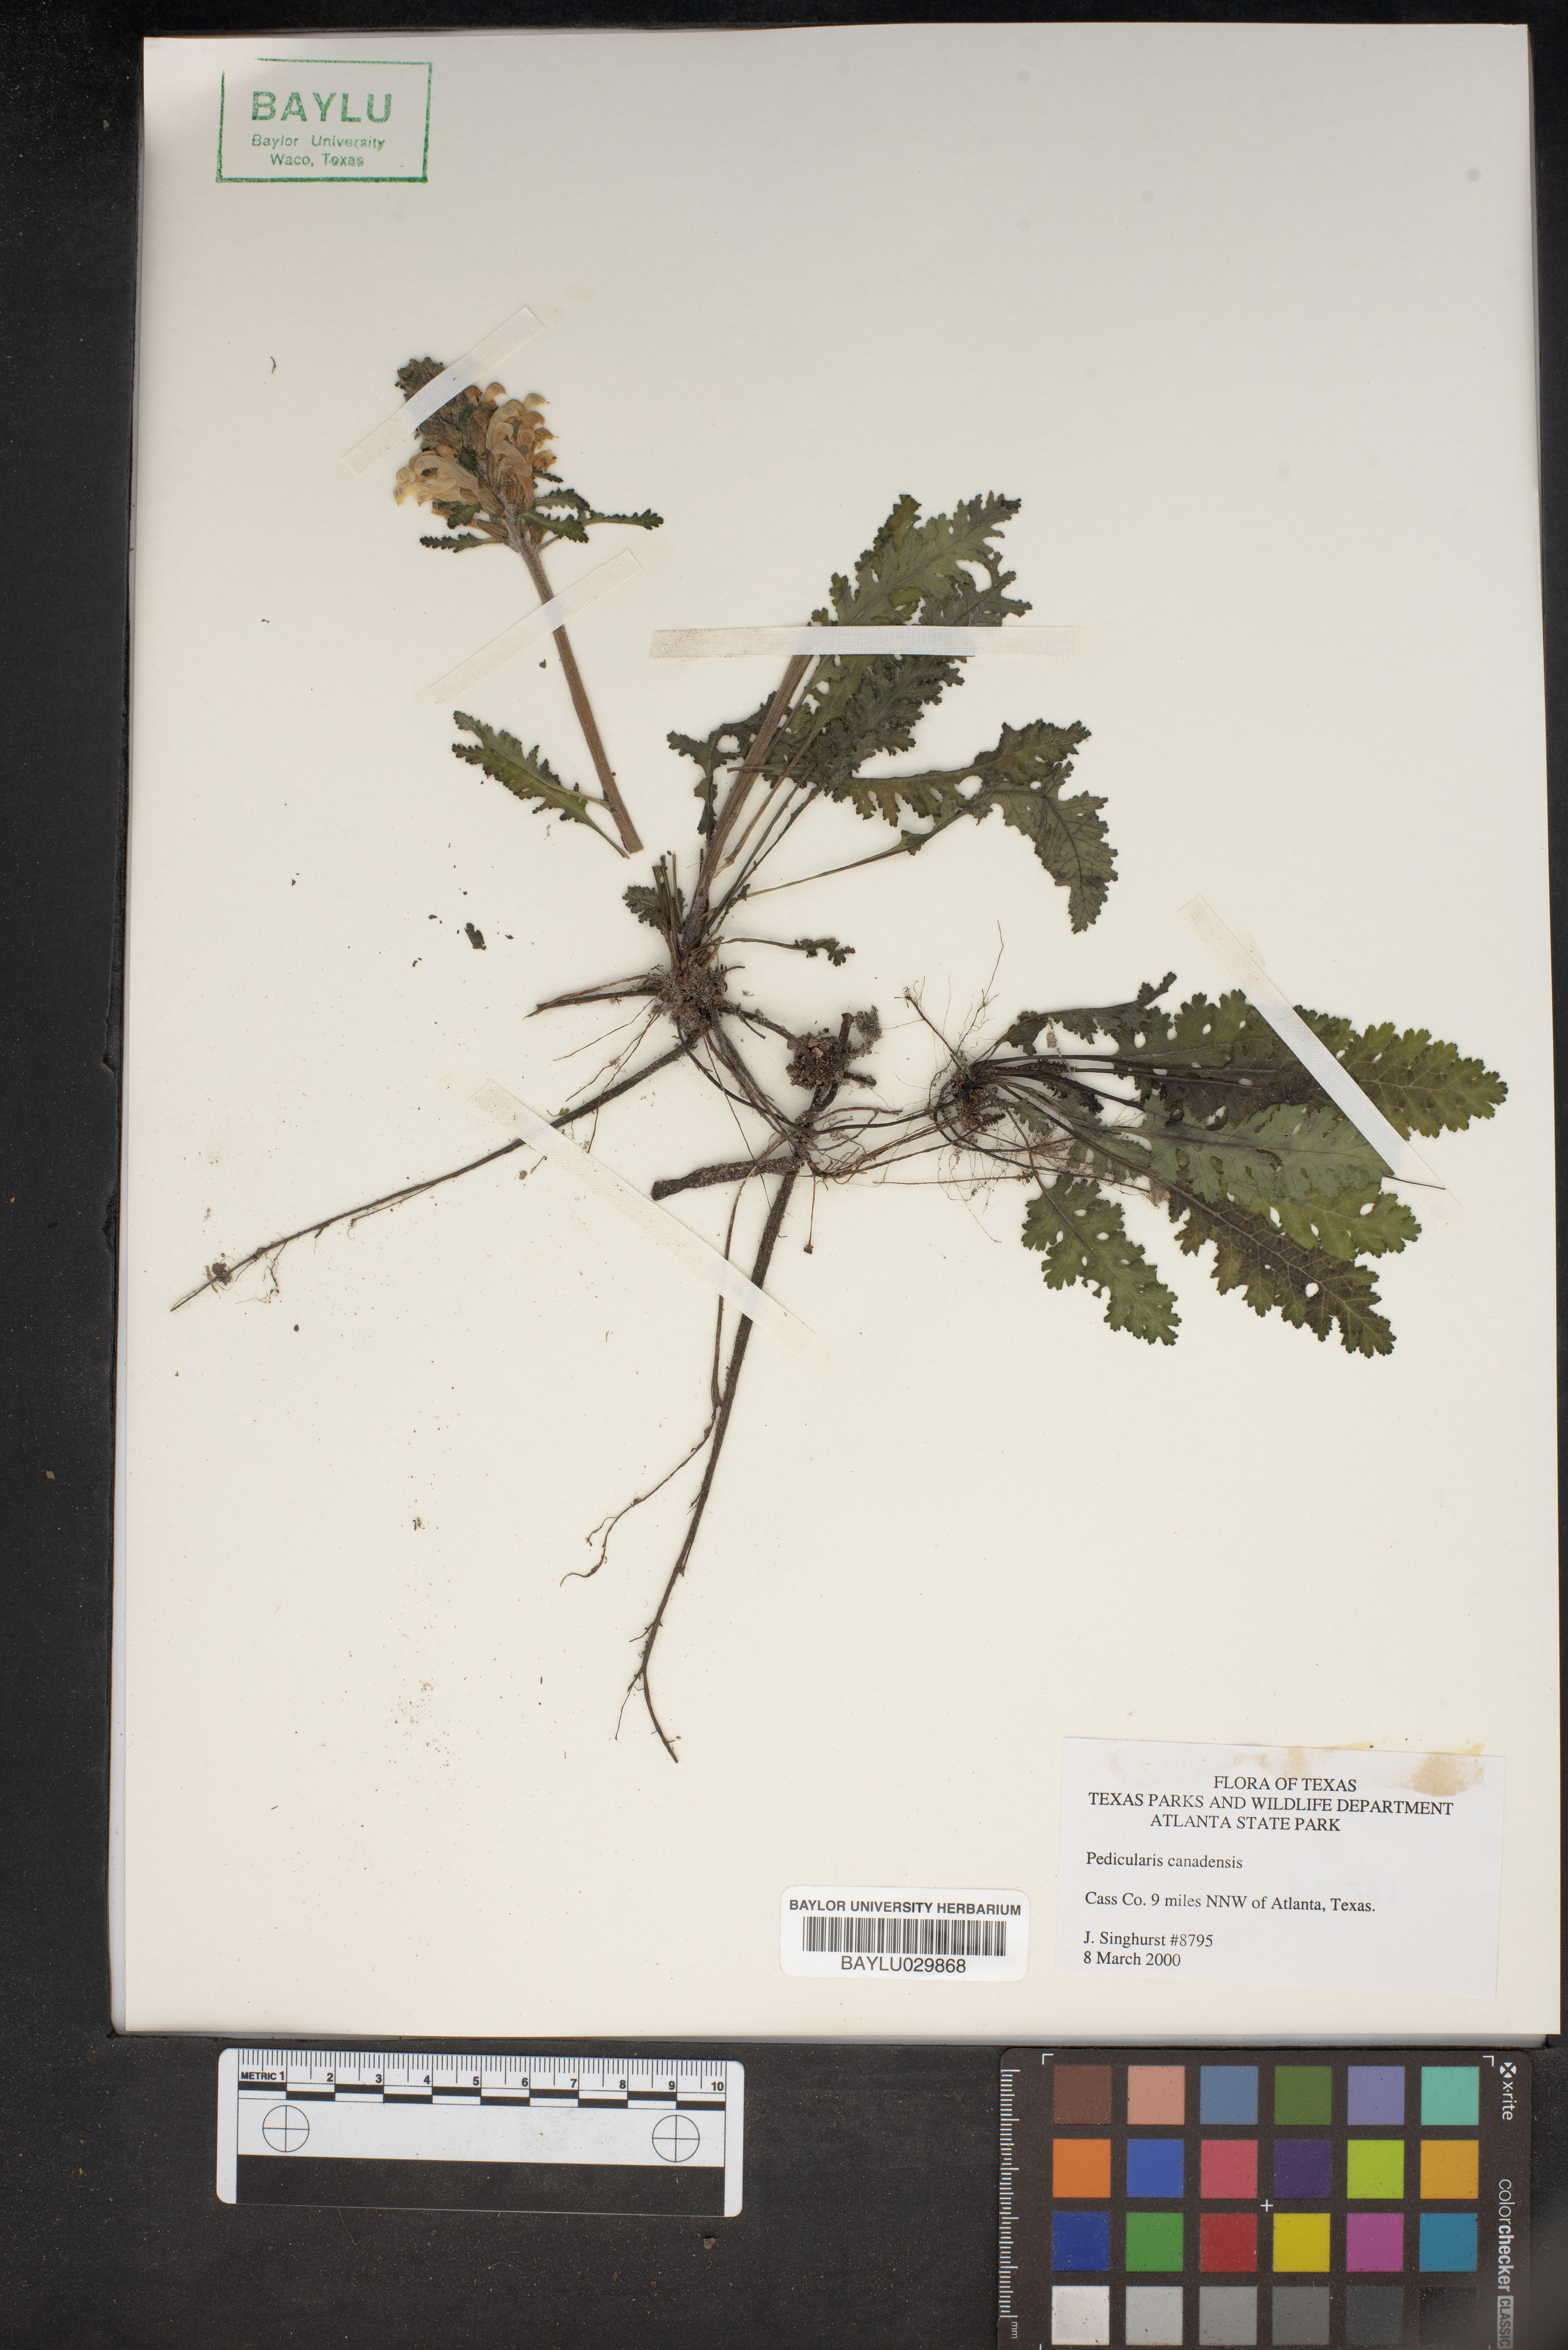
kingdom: Plantae
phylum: Tracheophyta
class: Magnoliopsida
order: Lamiales
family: Orobanchaceae
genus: Pedicularis
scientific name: Pedicularis canadensis
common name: Early lousewort
